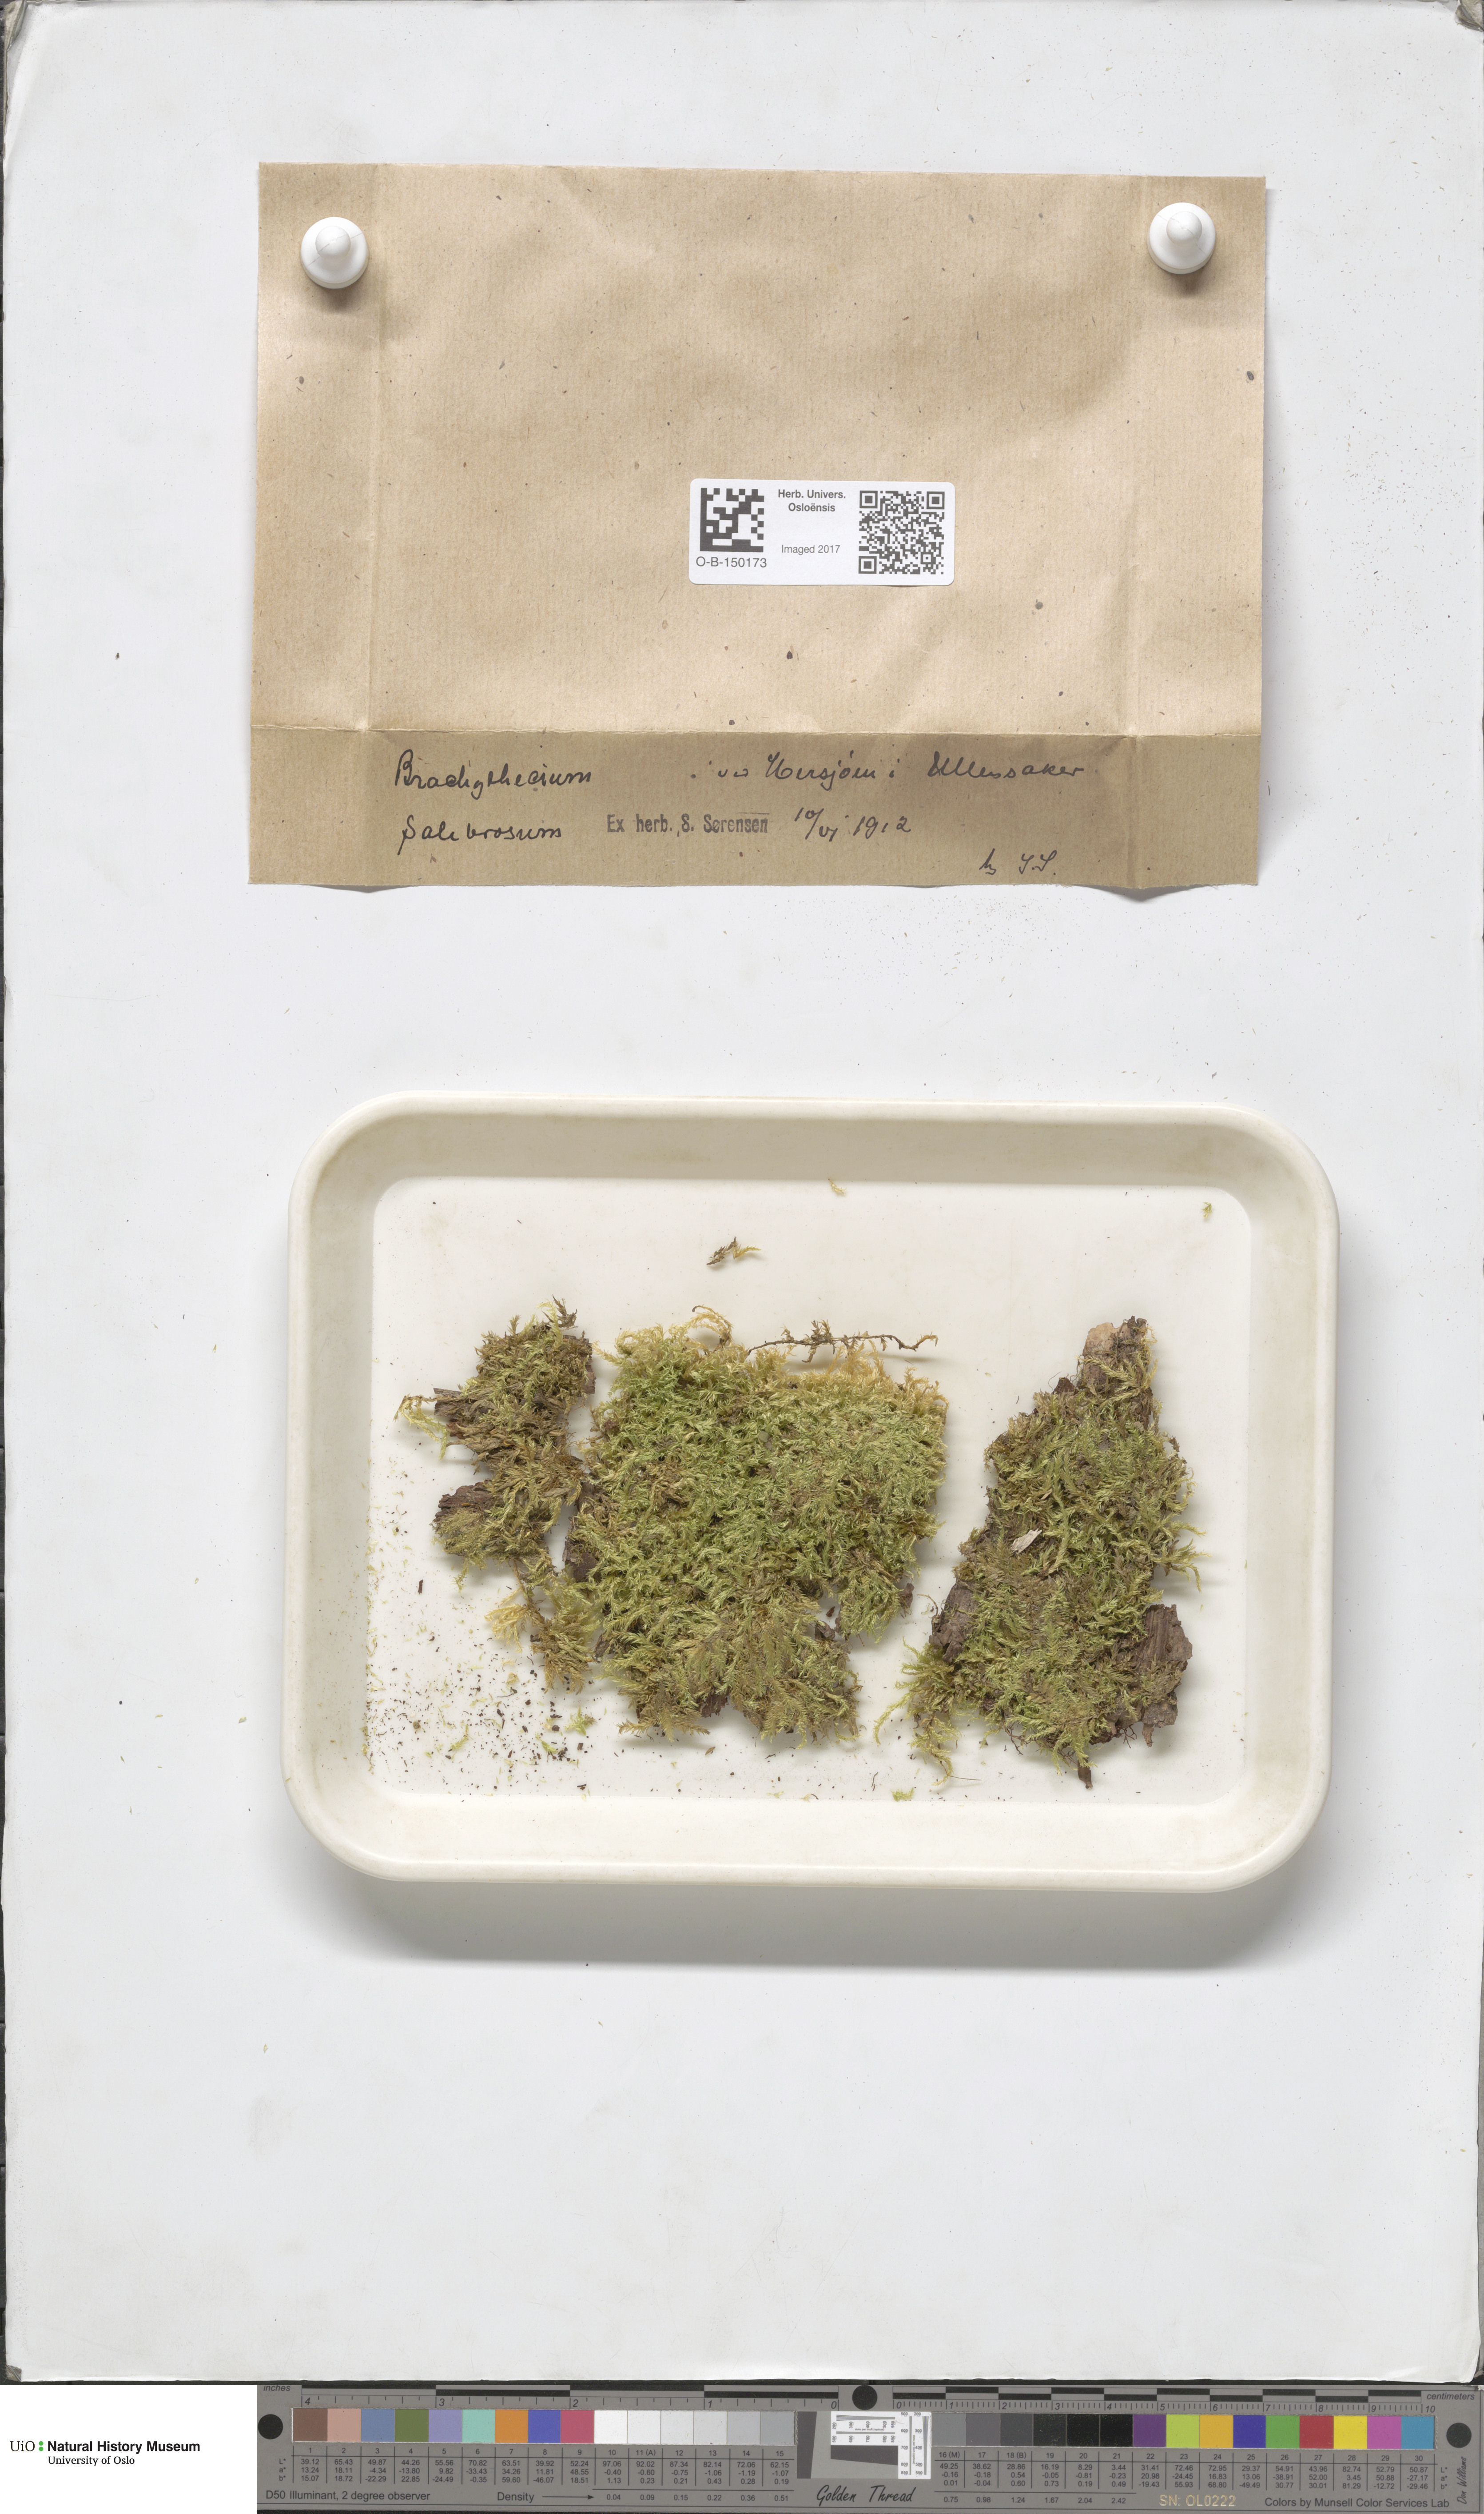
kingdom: Plantae
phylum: Bryophyta
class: Bryopsida
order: Hypnales
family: Brachytheciaceae
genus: Brachythecium
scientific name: Brachythecium salebrosum
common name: Smooth-stalk feather-moss
